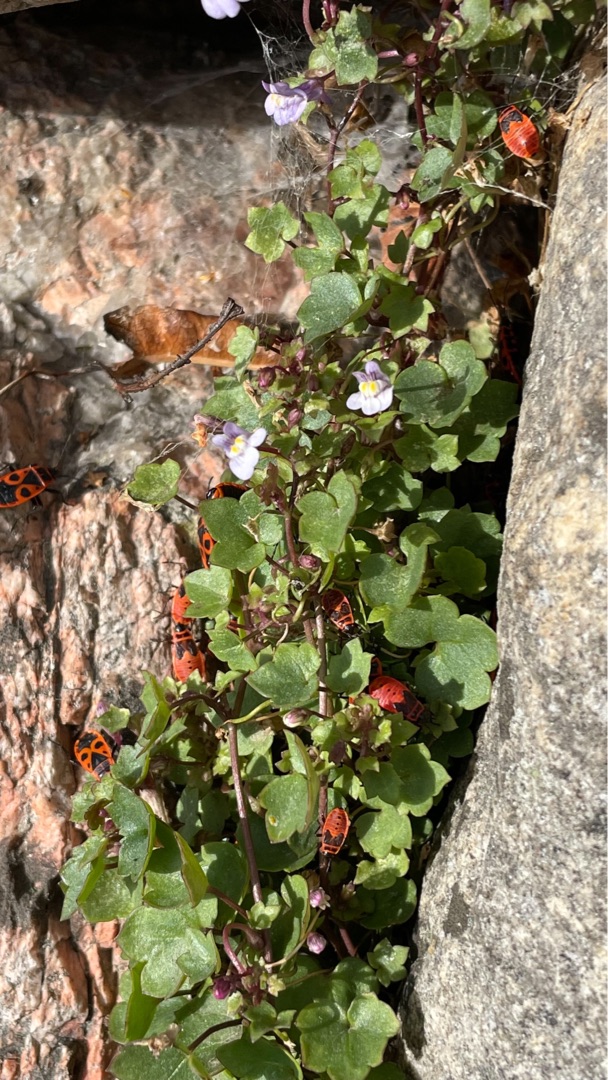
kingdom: Animalia
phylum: Arthropoda
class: Insecta
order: Hemiptera
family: Pyrrhocoridae
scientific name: Pyrrhocoridae
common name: Ildtæger
